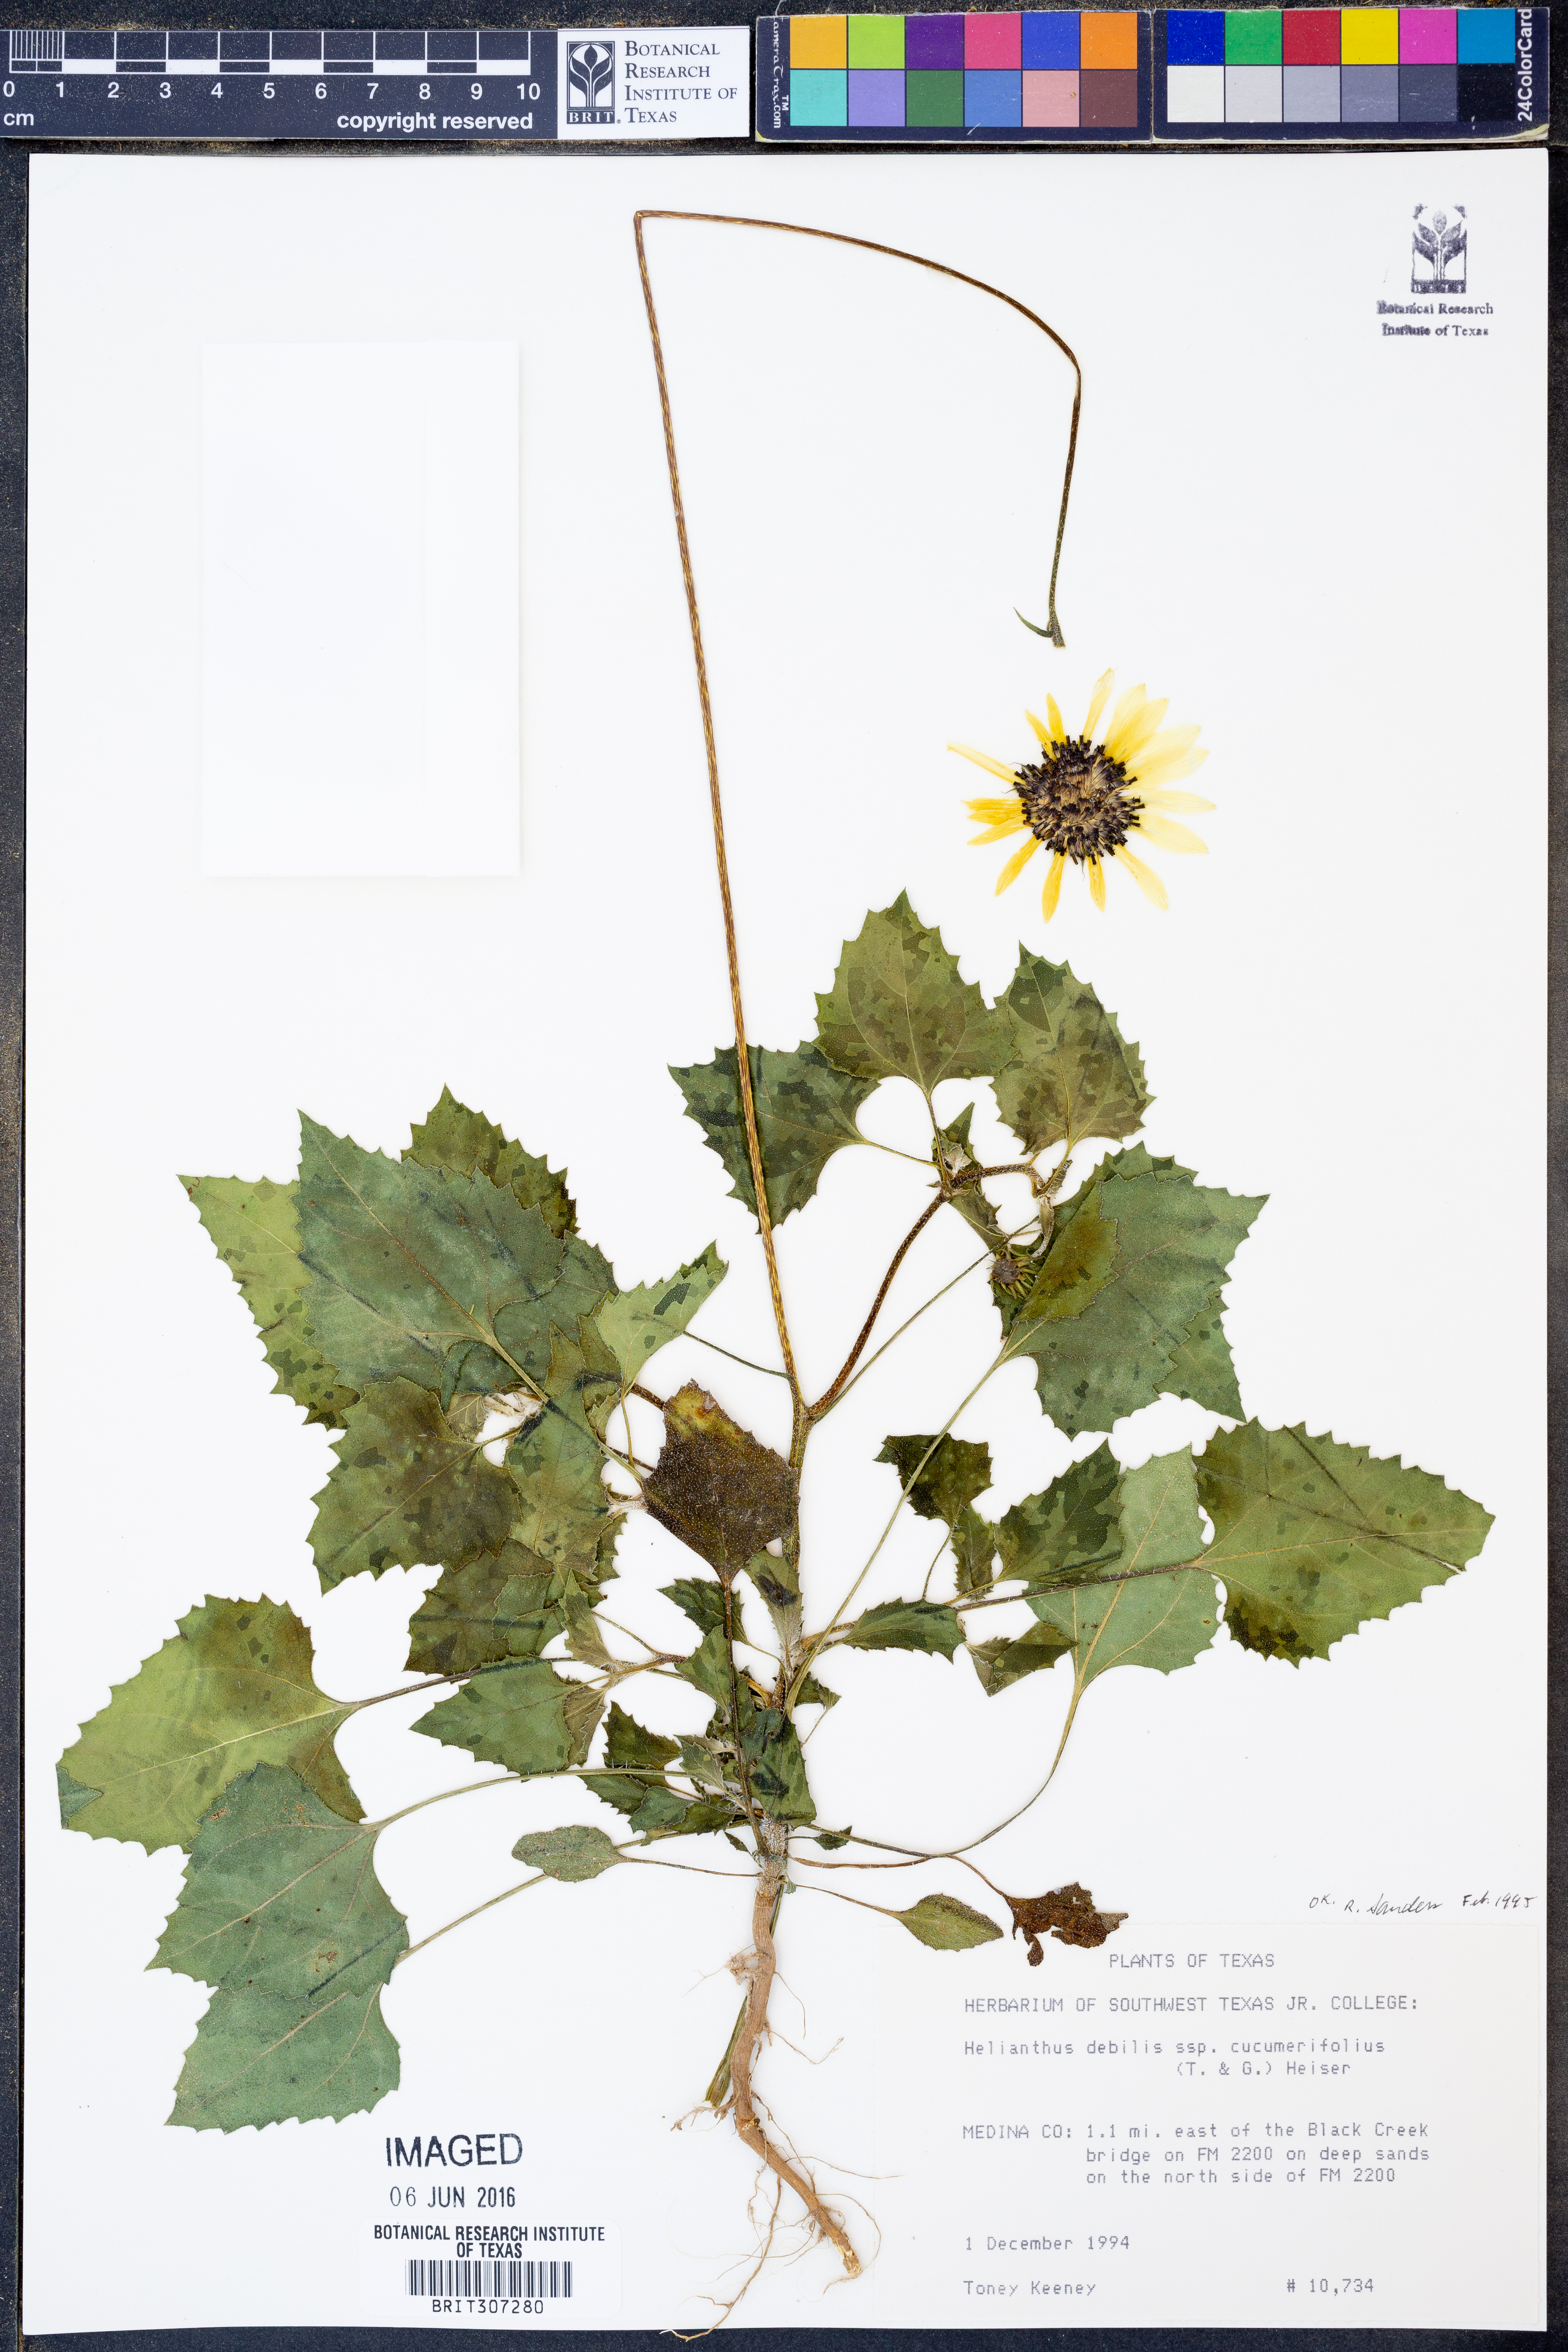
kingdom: Plantae
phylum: Tracheophyta
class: Magnoliopsida
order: Asterales
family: Asteraceae
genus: Helianthus
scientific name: Helianthus debilis
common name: Weak sunflower
